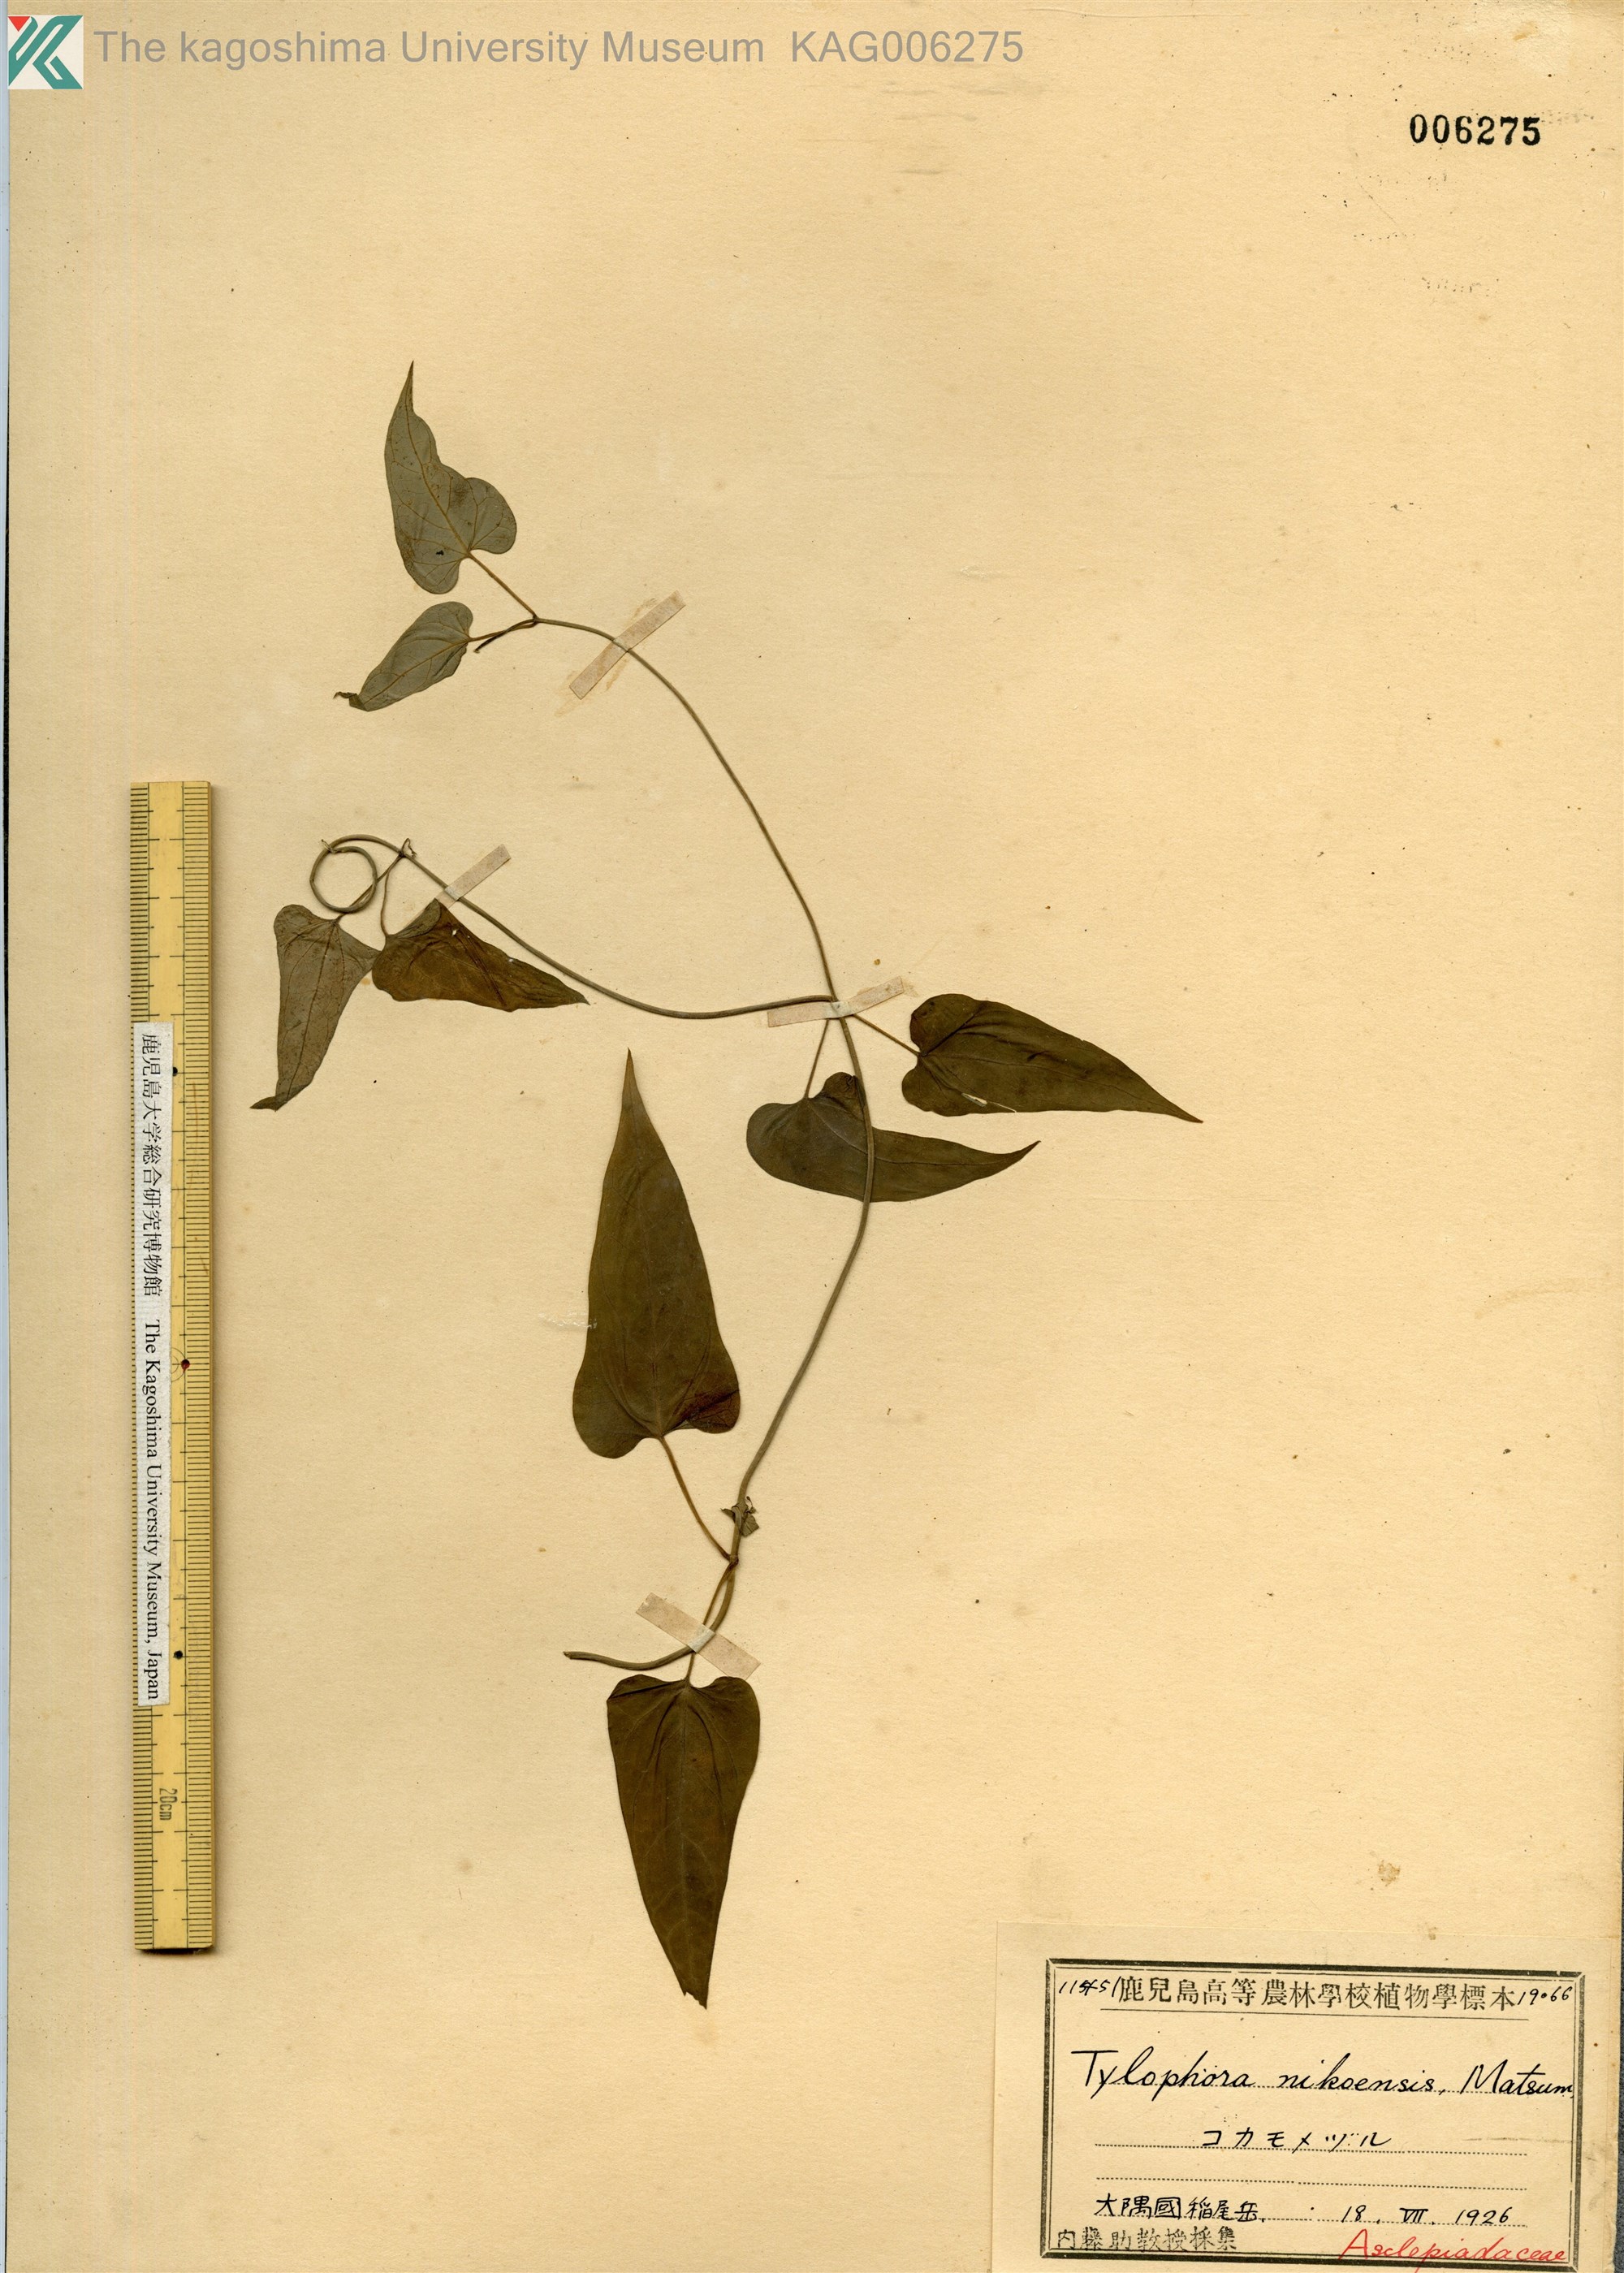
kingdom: Plantae
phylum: Tracheophyta
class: Magnoliopsida
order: Gentianales
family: Apocynaceae
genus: Vincetoxicum
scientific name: Vincetoxicum aristolochioides
